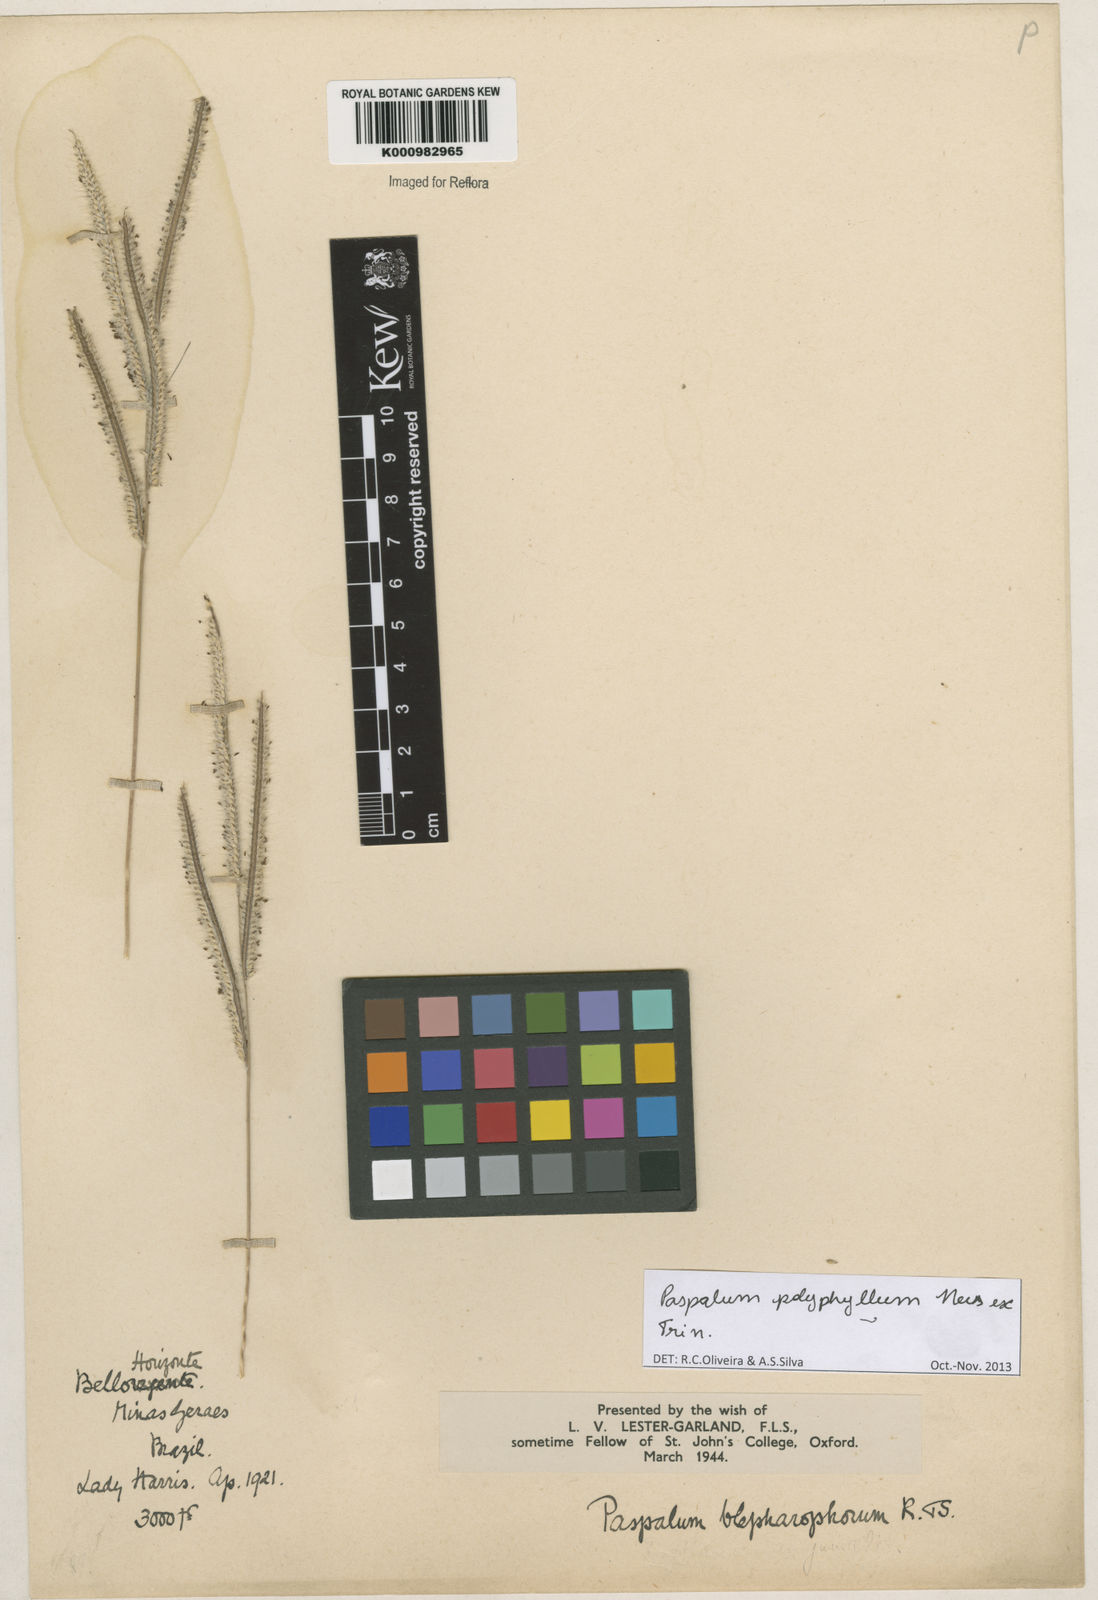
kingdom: Plantae
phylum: Tracheophyta
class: Liliopsida
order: Poales
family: Poaceae
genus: Paspalum
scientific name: Paspalum
